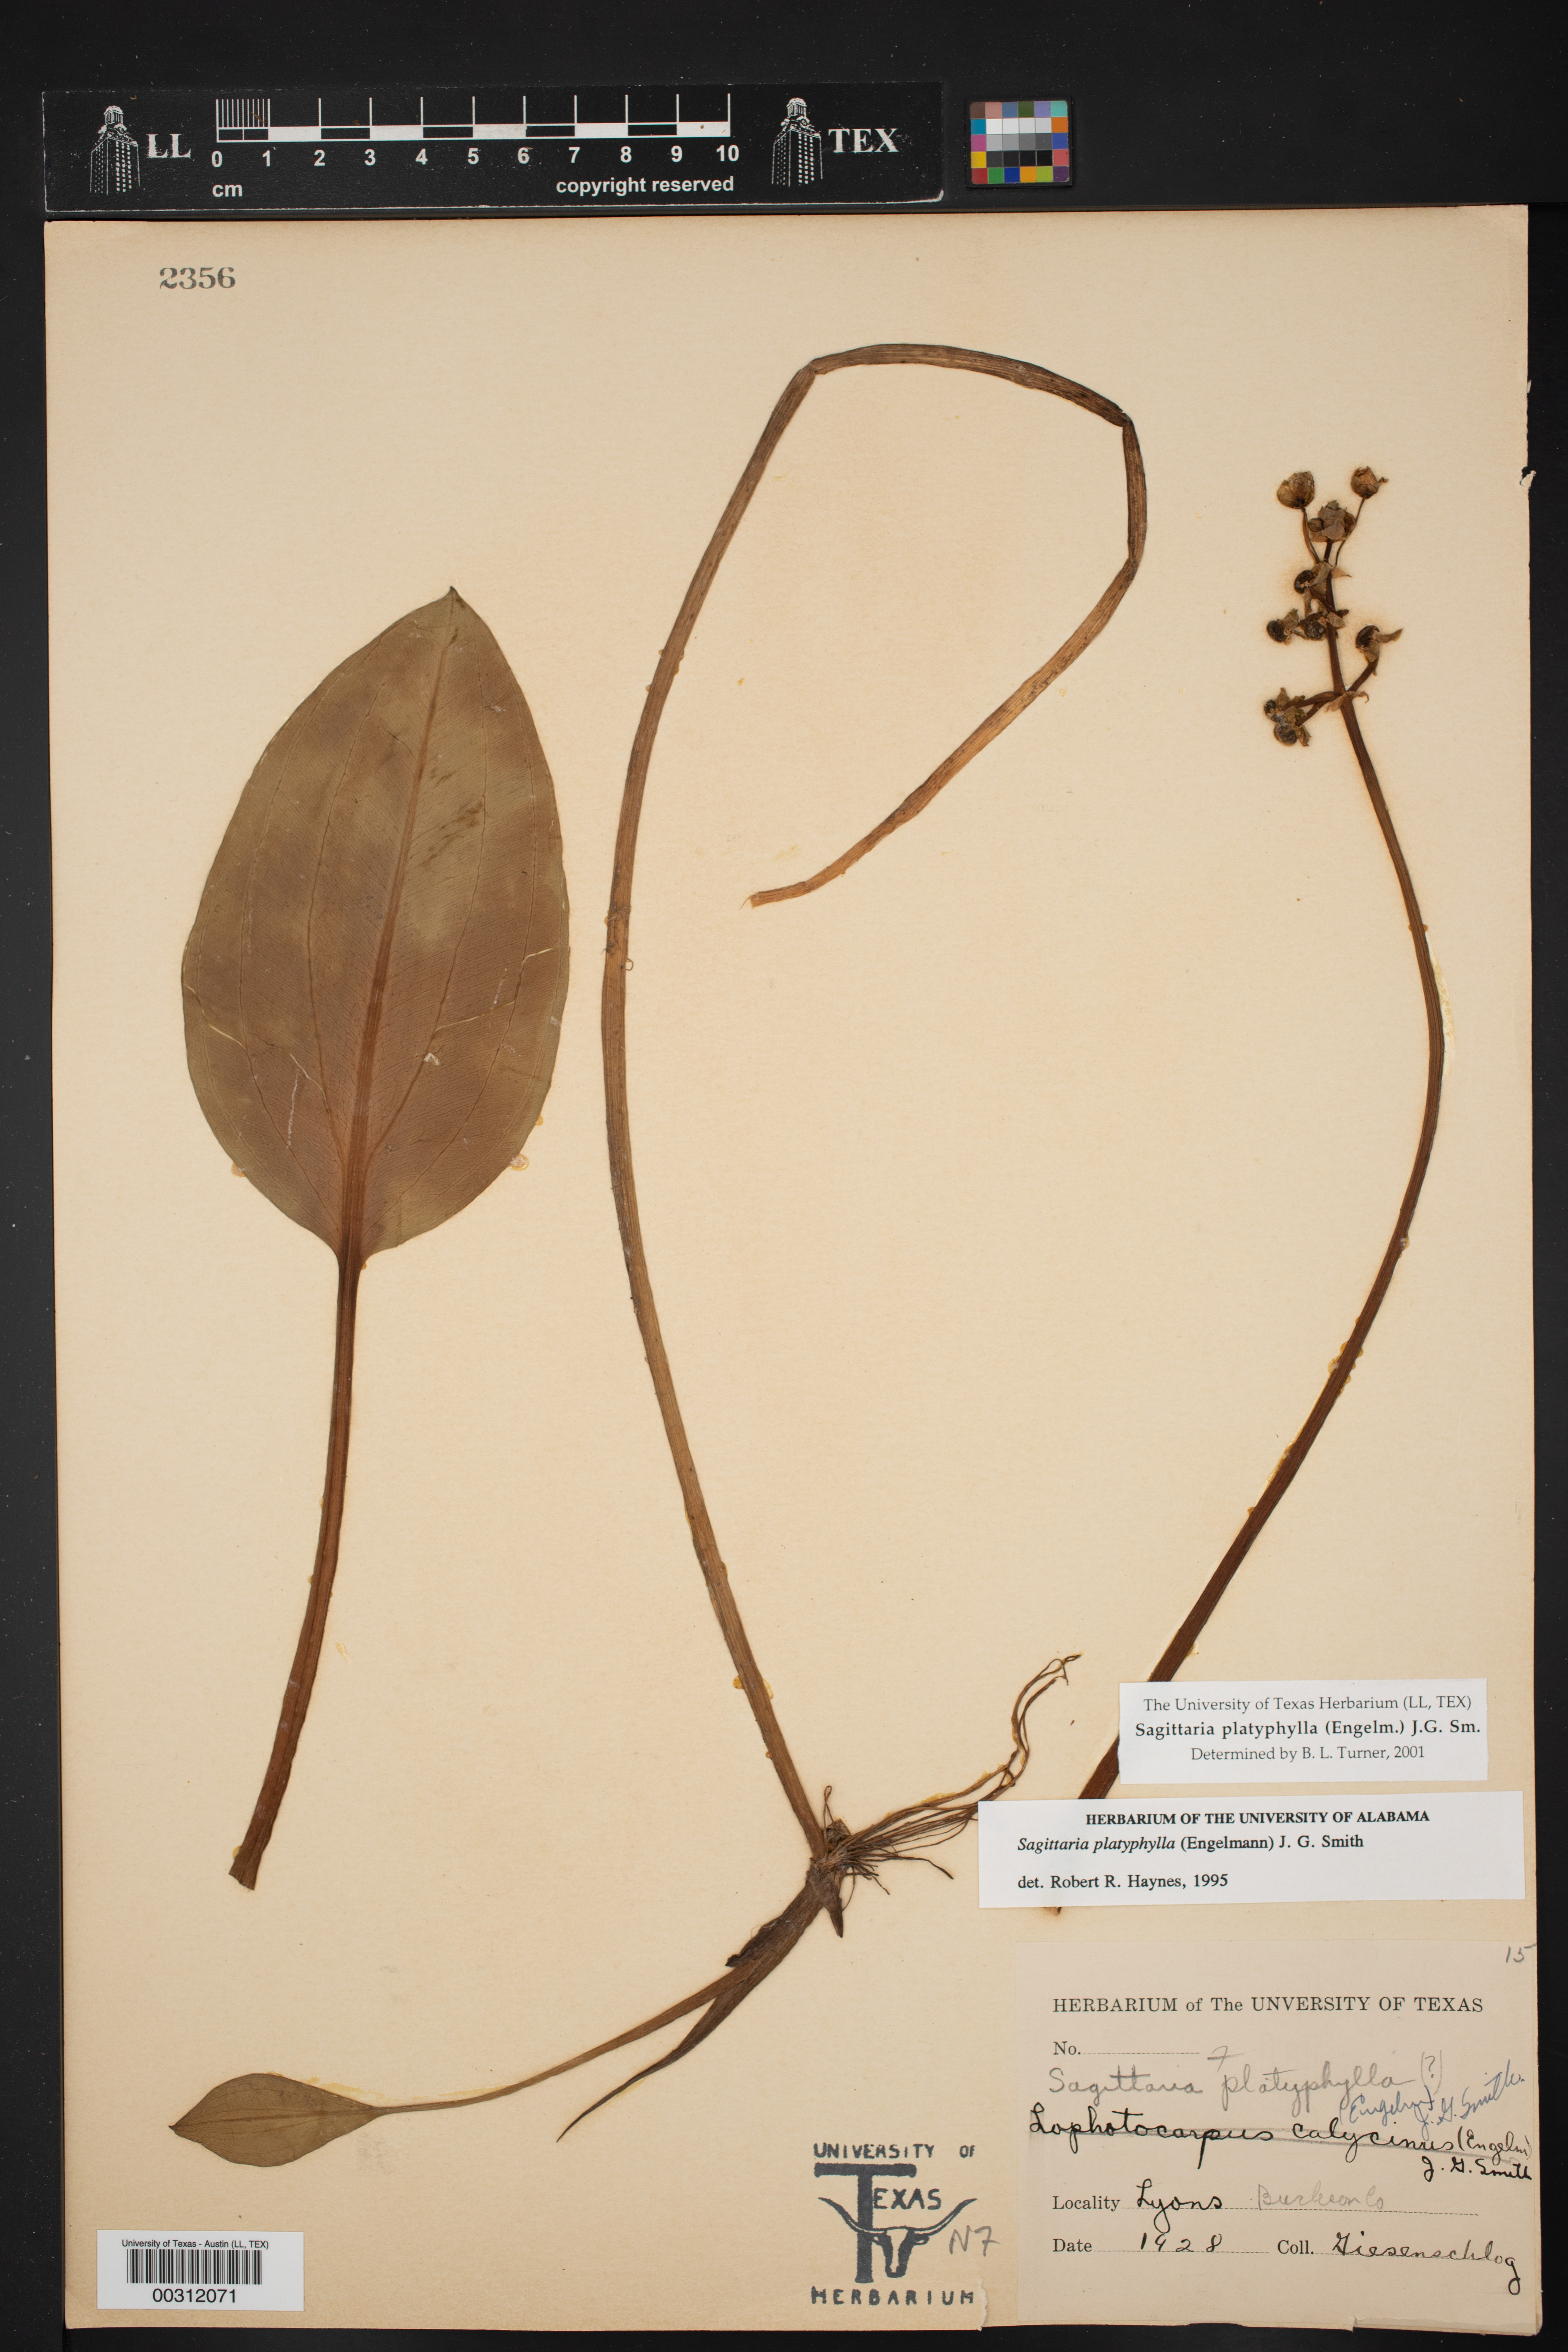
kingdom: Plantae
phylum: Tracheophyta
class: Liliopsida
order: Alismatales
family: Alismataceae
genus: Sagittaria
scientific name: Sagittaria platyphylla
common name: Broad-leaf arrowhead
